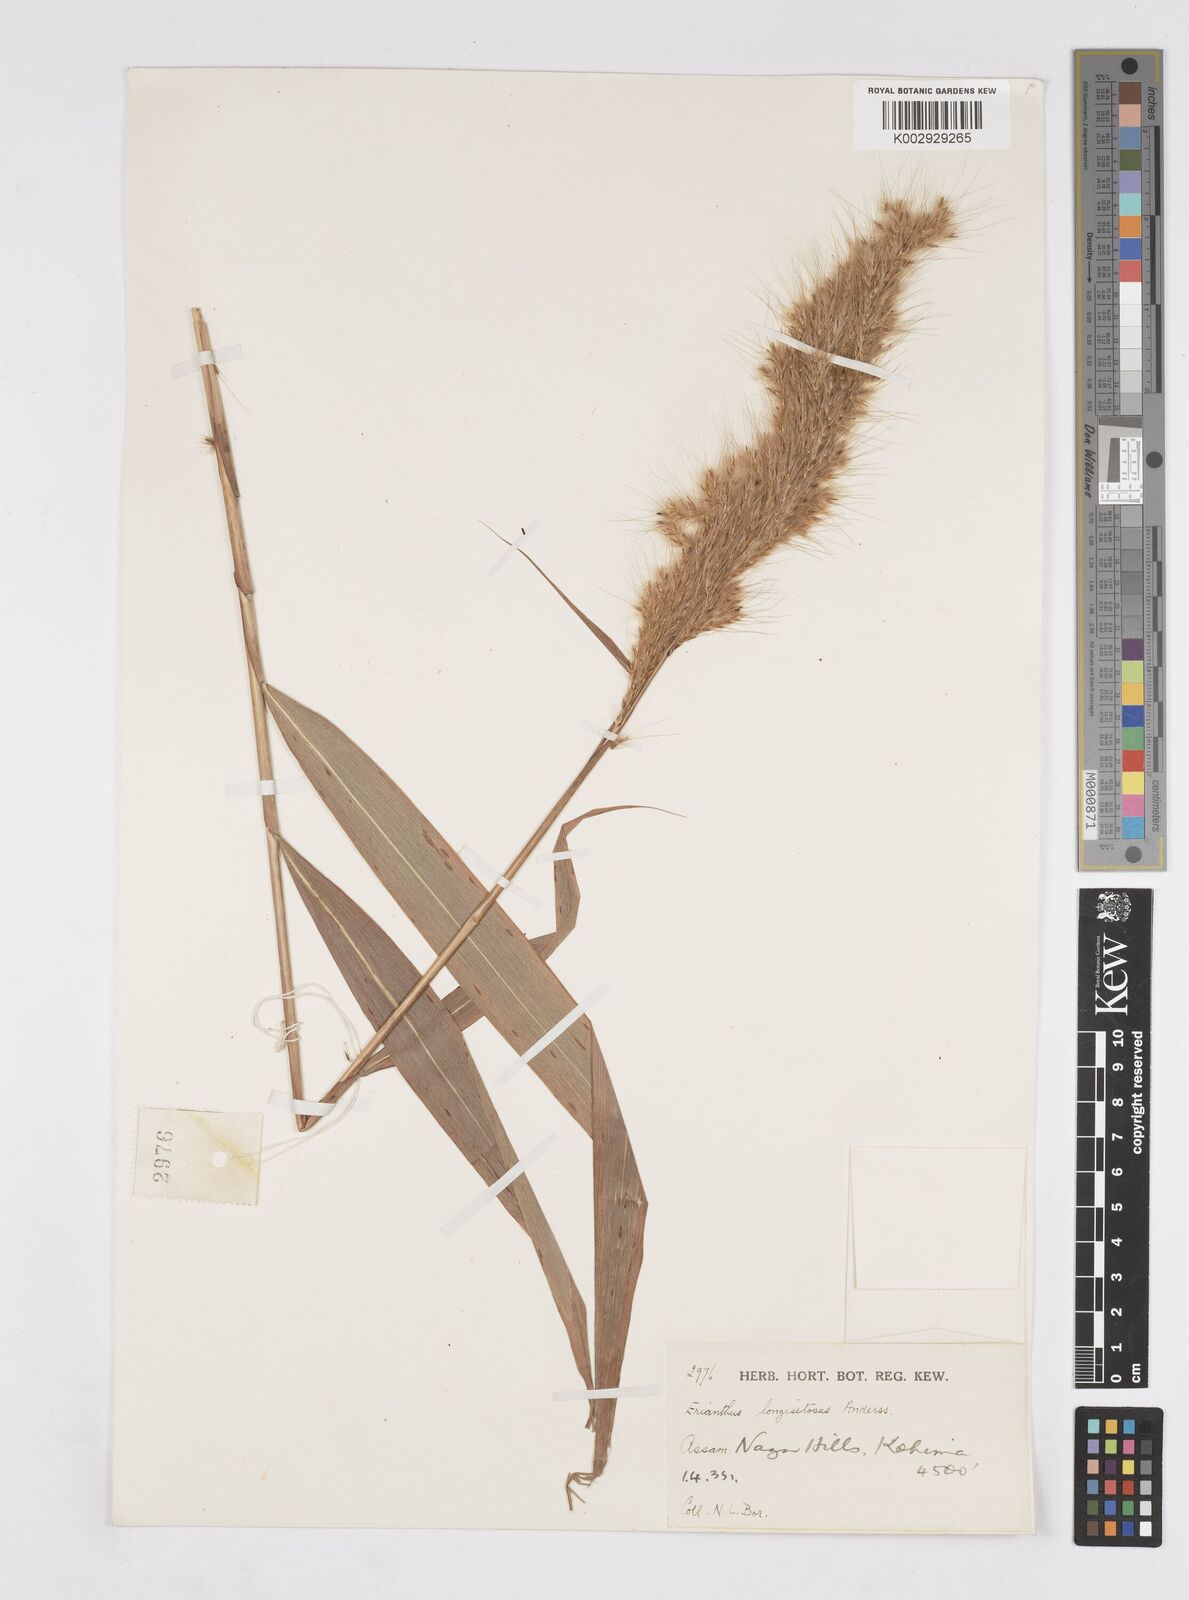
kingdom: Plantae
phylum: Tracheophyta
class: Liliopsida
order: Poales
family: Poaceae
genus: Saccharum
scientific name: Saccharum longesetosum
